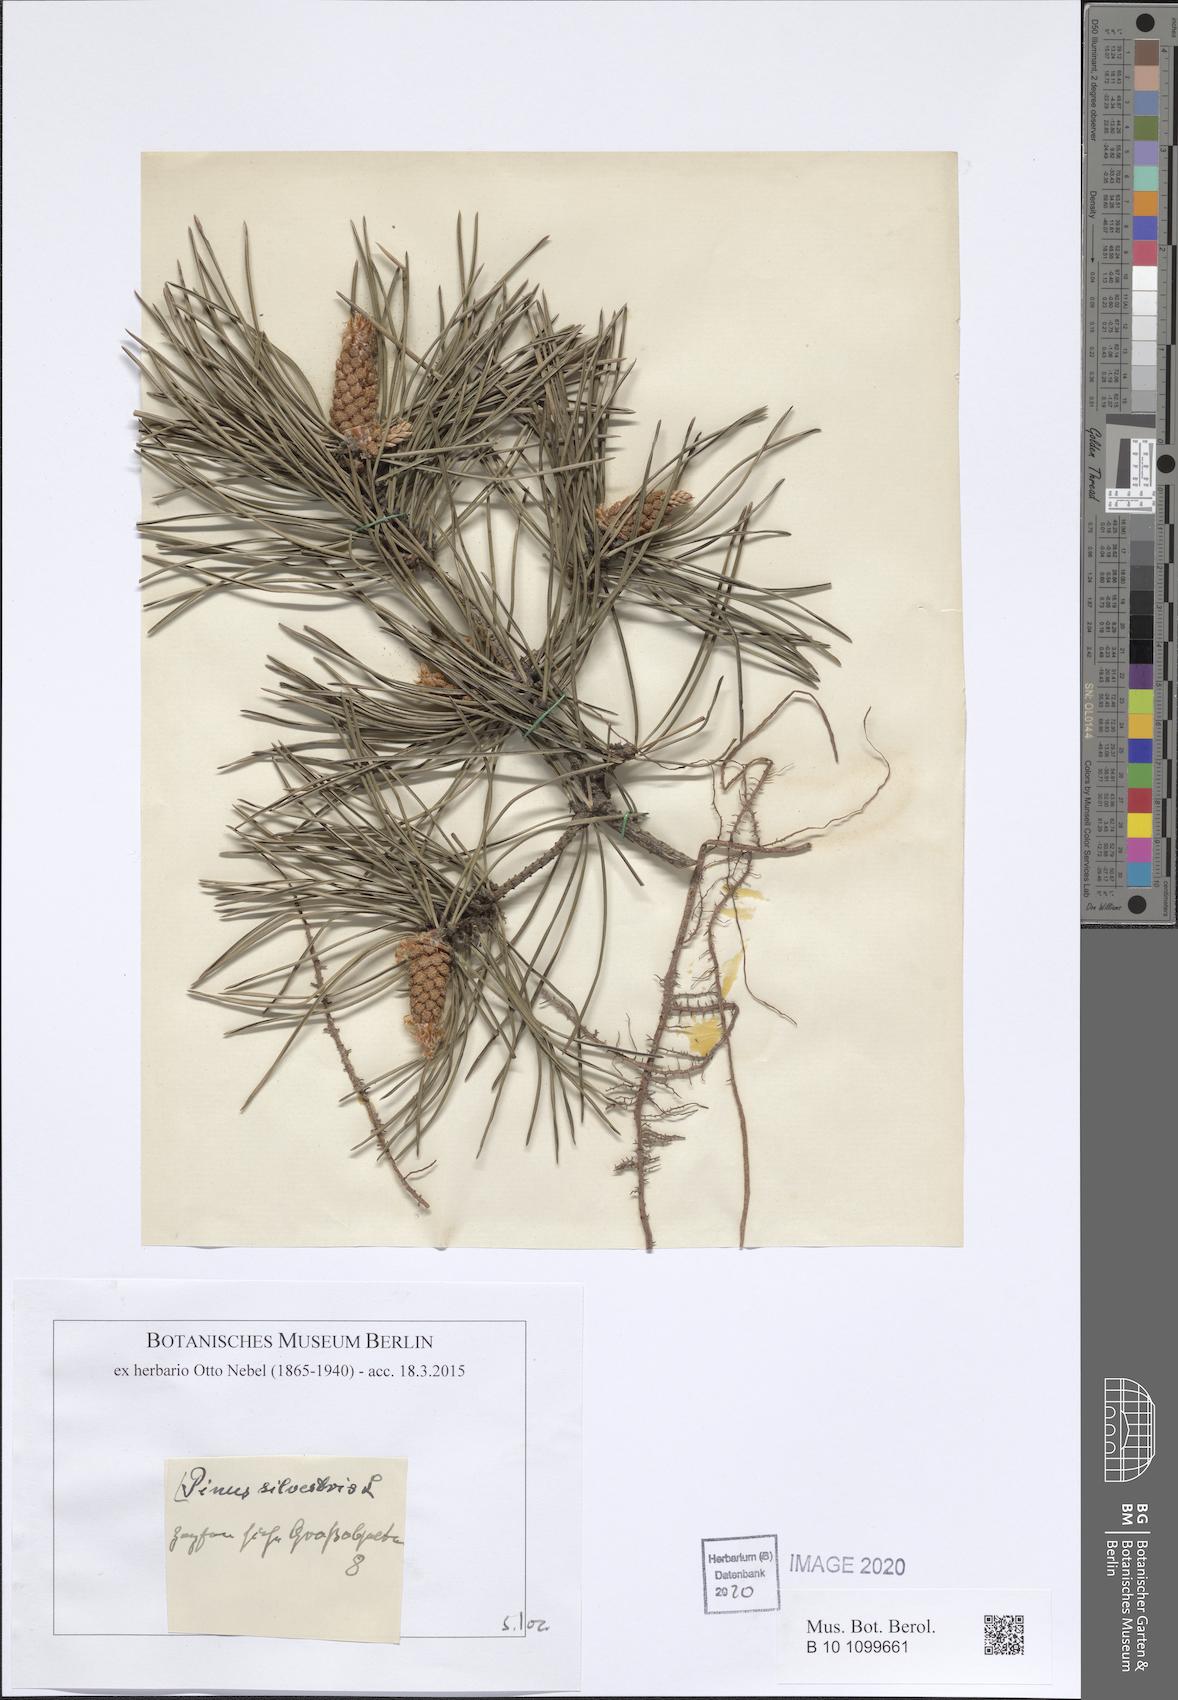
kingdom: Plantae
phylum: Tracheophyta
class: Pinopsida
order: Pinales
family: Pinaceae
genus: Pinus
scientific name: Pinus sylvestris
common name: Scots pine
